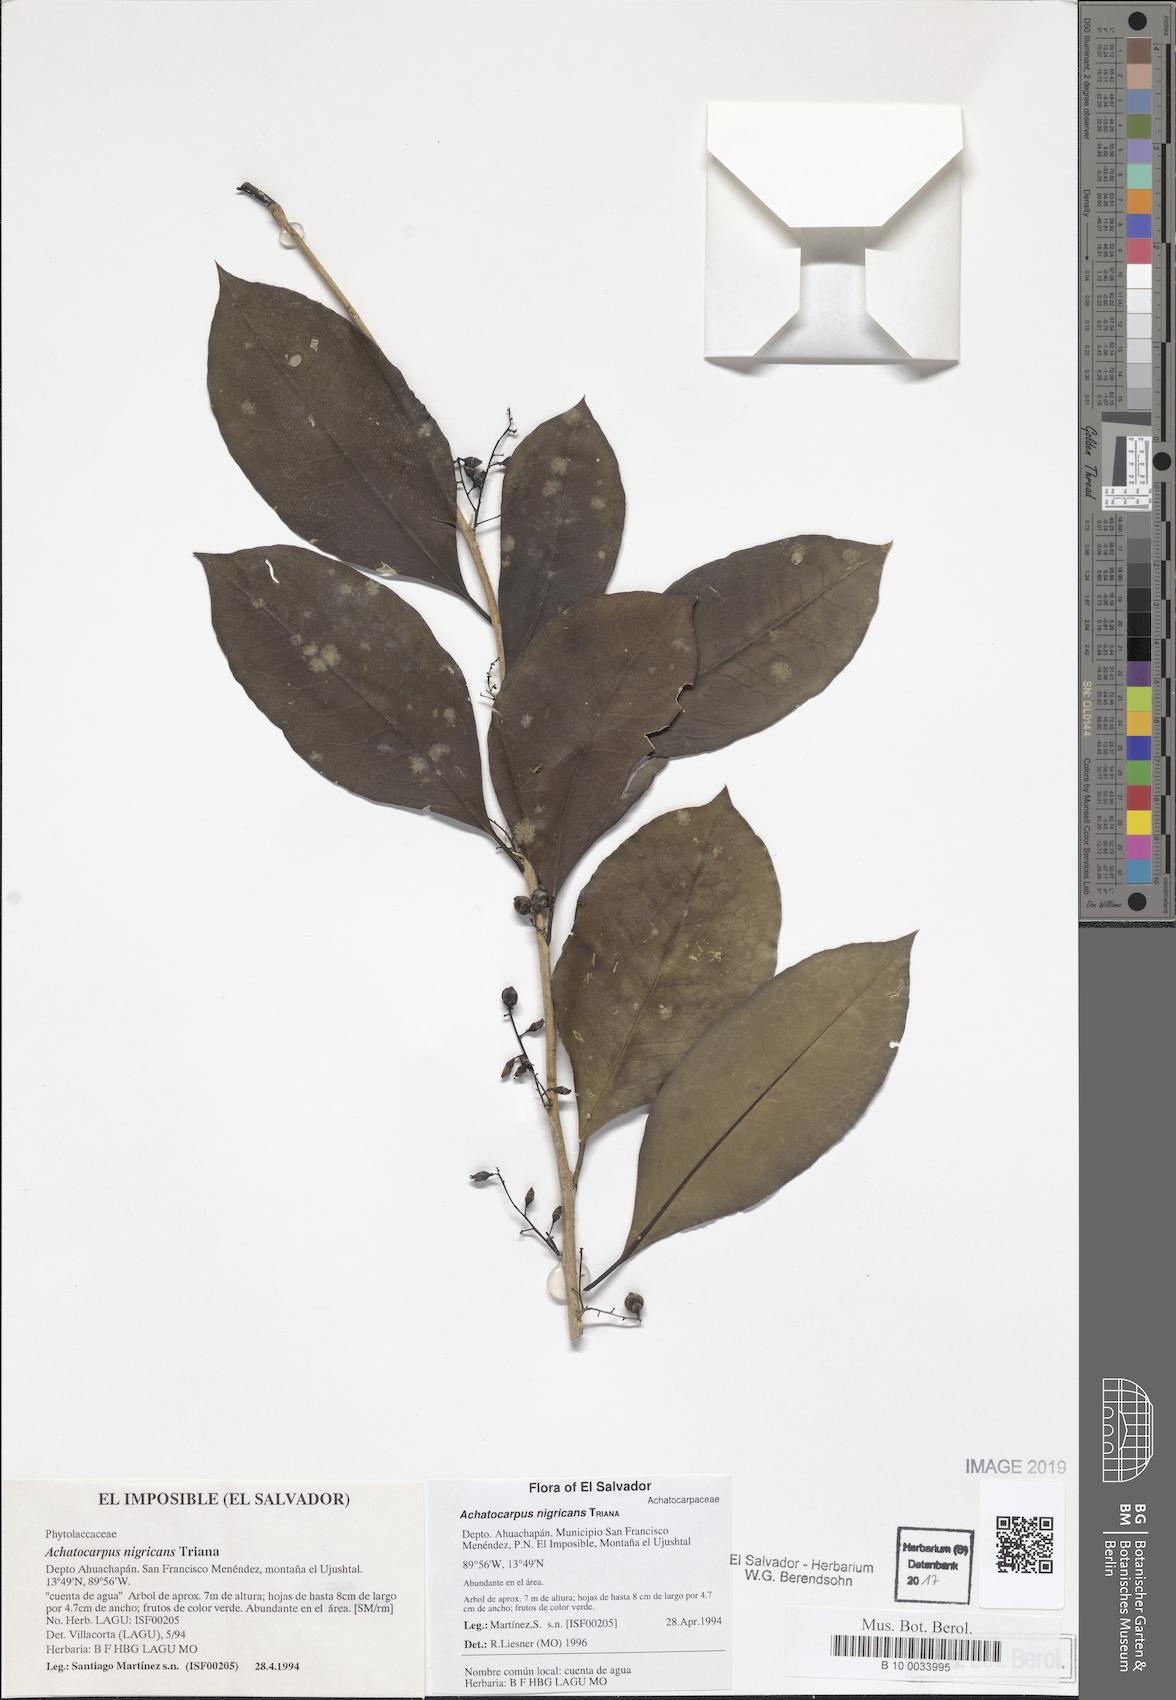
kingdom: Plantae
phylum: Tracheophyta
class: Magnoliopsida
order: Caryophyllales
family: Achatocarpaceae
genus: Achatocarpus
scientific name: Achatocarpus nigricans
